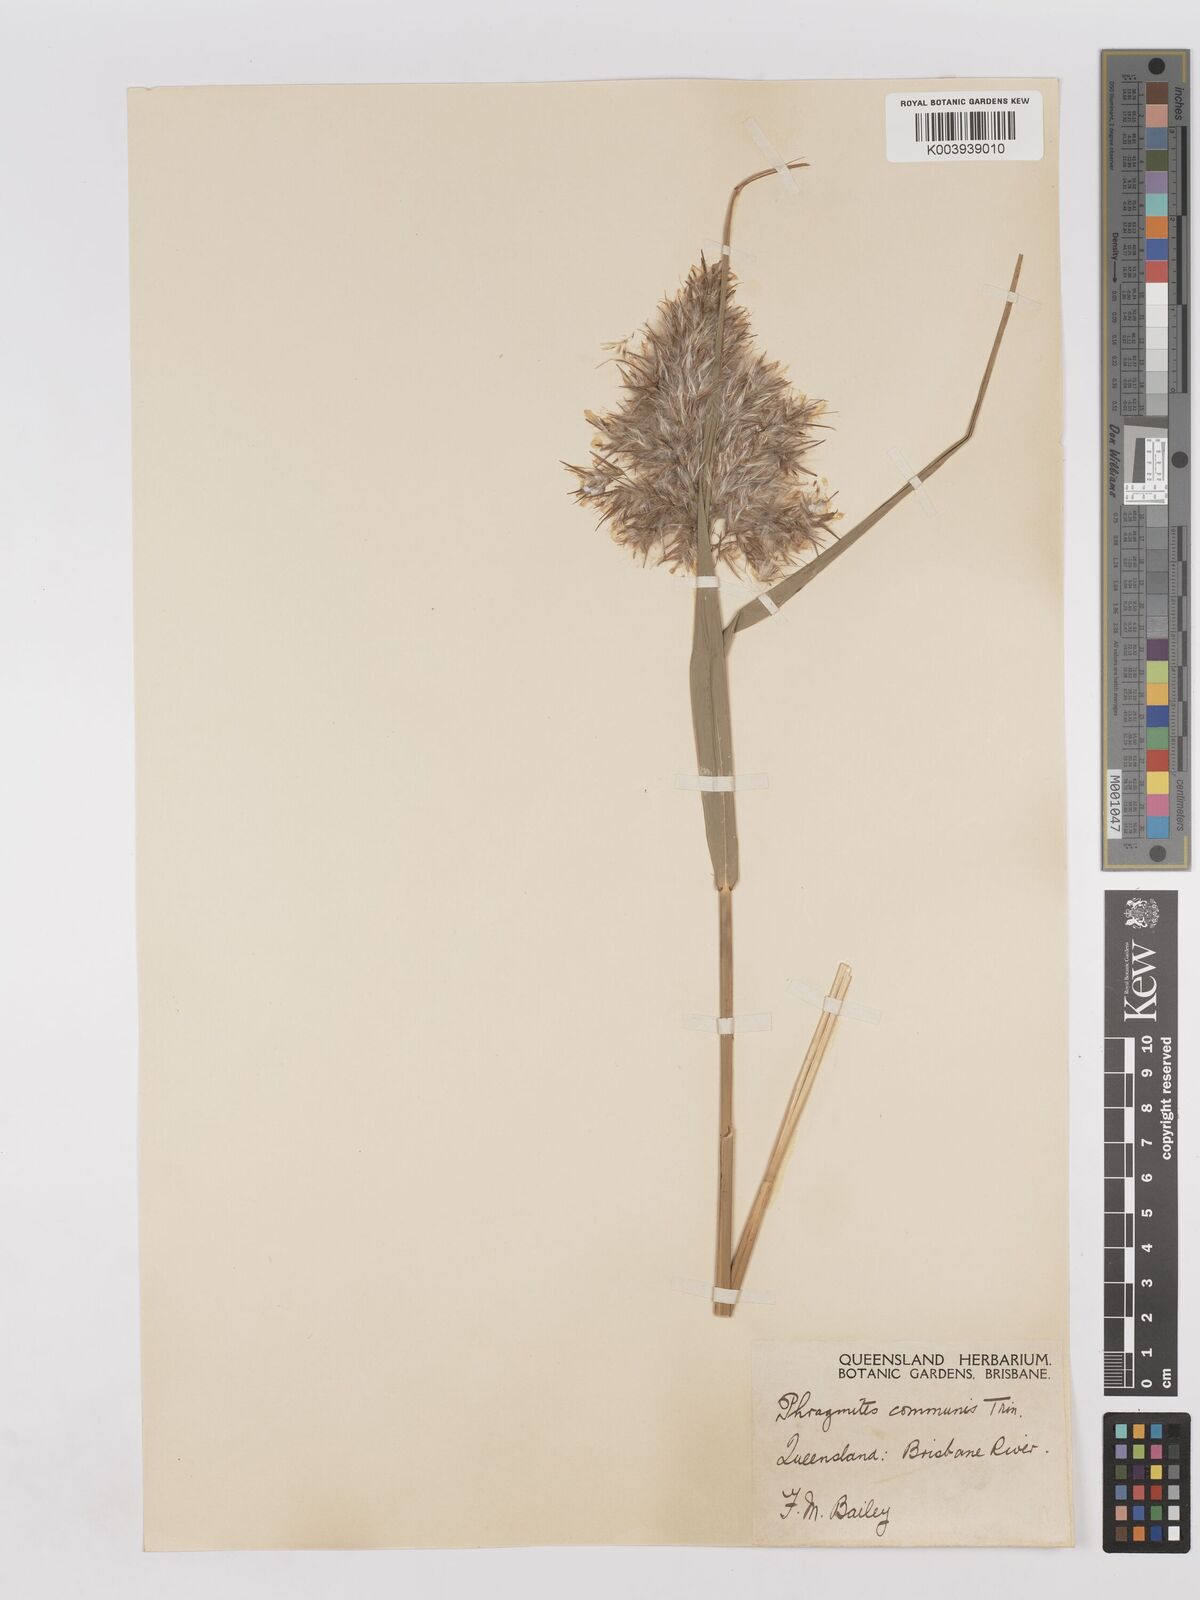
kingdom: Plantae
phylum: Tracheophyta
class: Liliopsida
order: Poales
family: Poaceae
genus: Phragmites
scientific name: Phragmites australis
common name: Common reed
